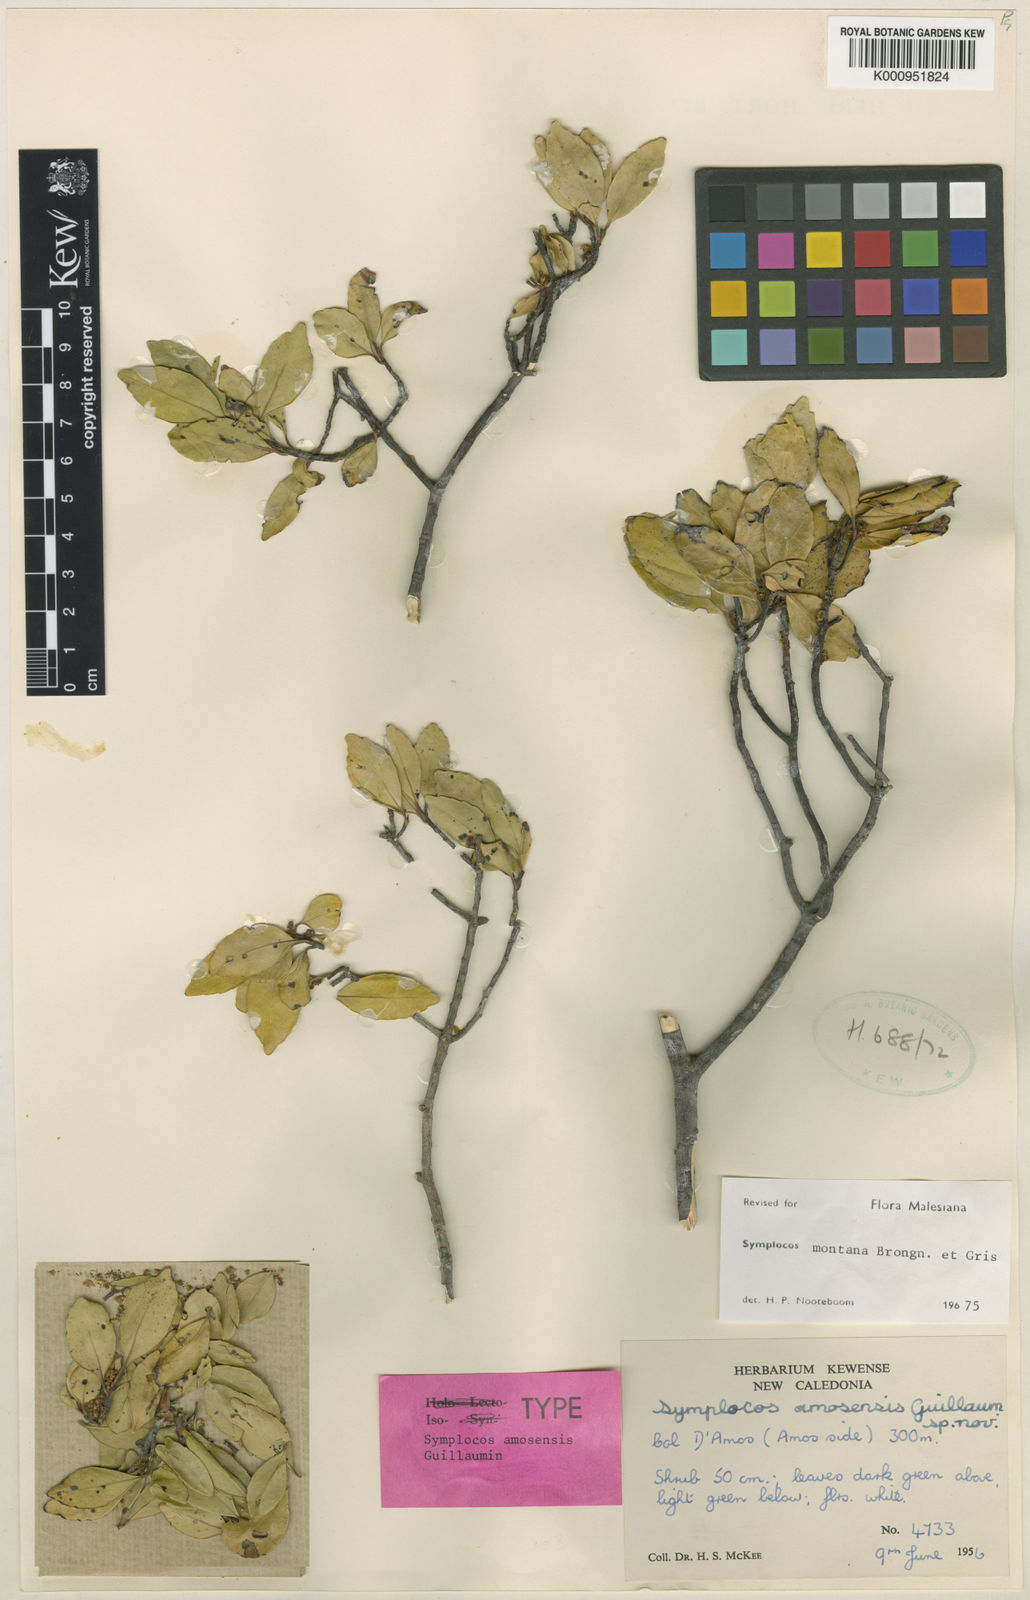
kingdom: Plantae
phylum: Tracheophyta
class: Magnoliopsida
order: Ericales
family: Symplocaceae
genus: Symplocos
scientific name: Symplocos montana
